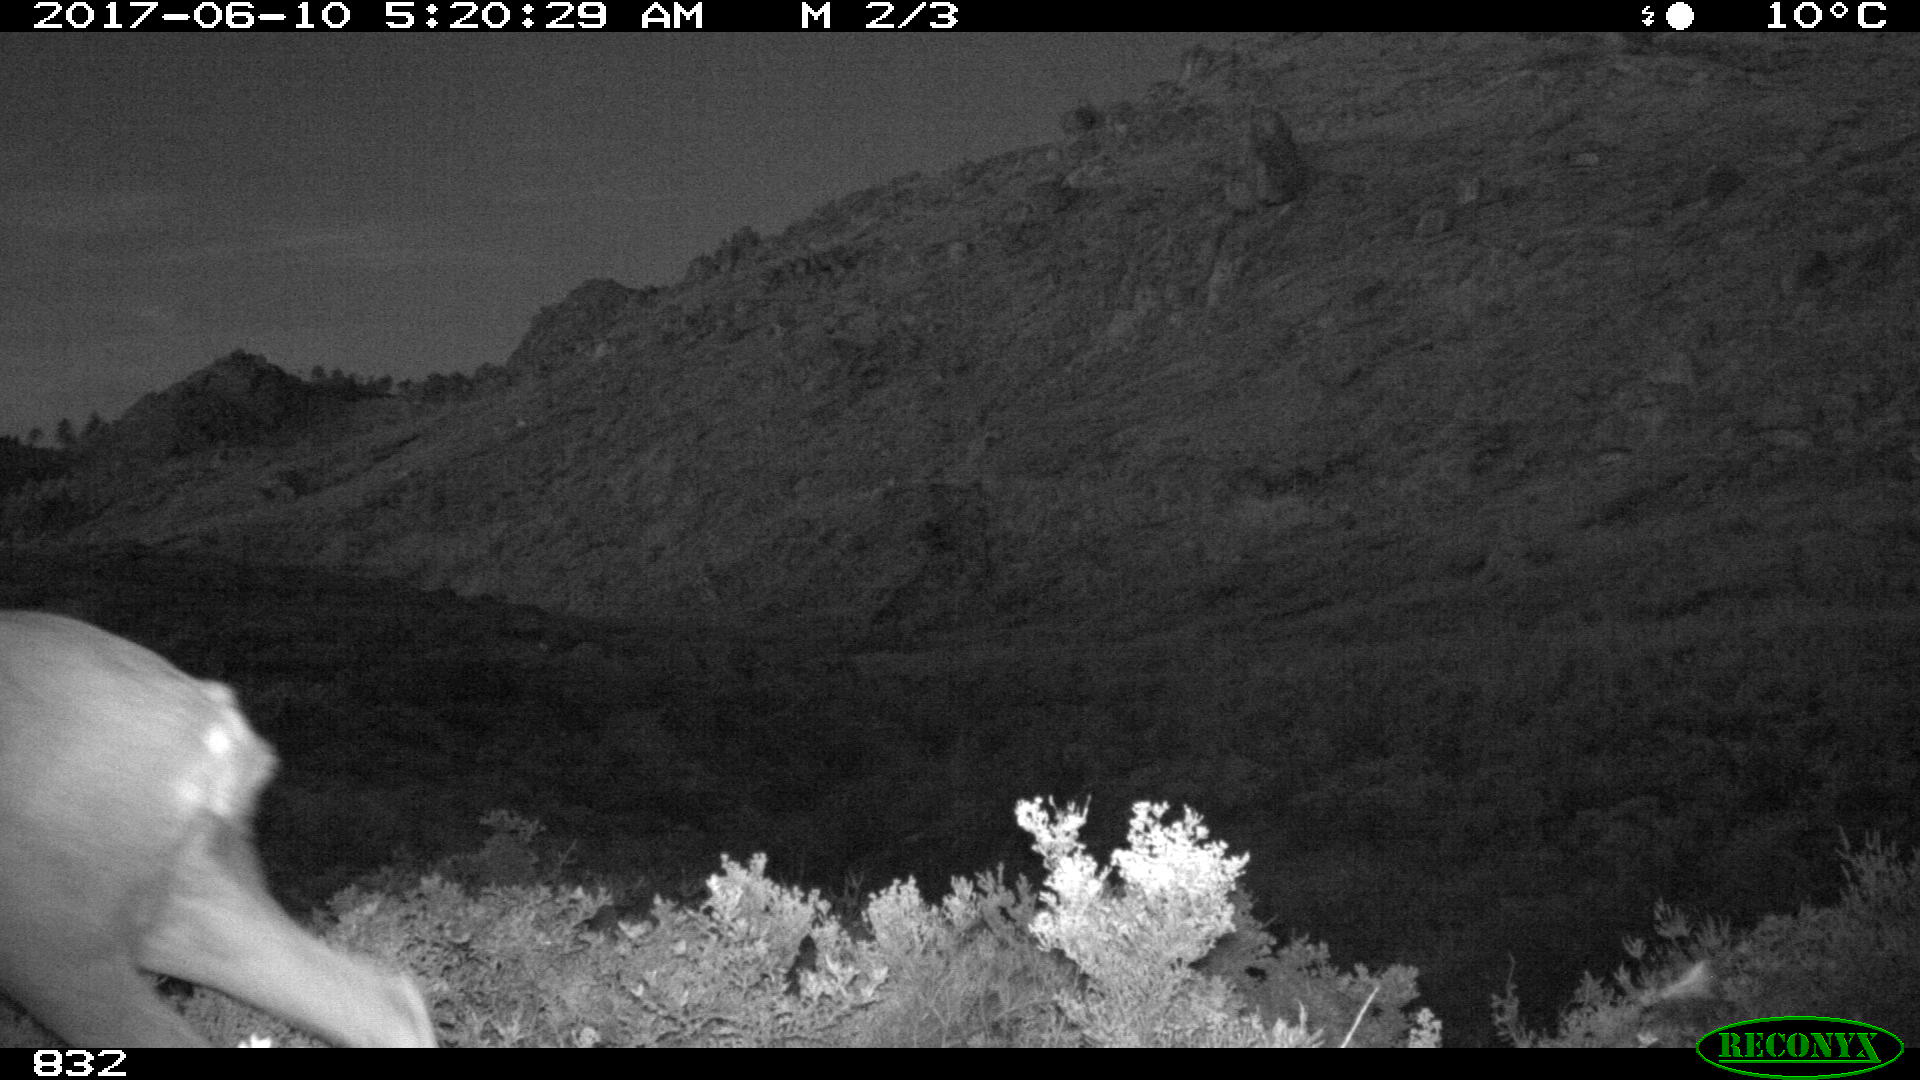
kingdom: Animalia
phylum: Chordata
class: Mammalia
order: Artiodactyla
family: Cervidae
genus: Capreolus
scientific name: Capreolus capreolus
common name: Western roe deer
